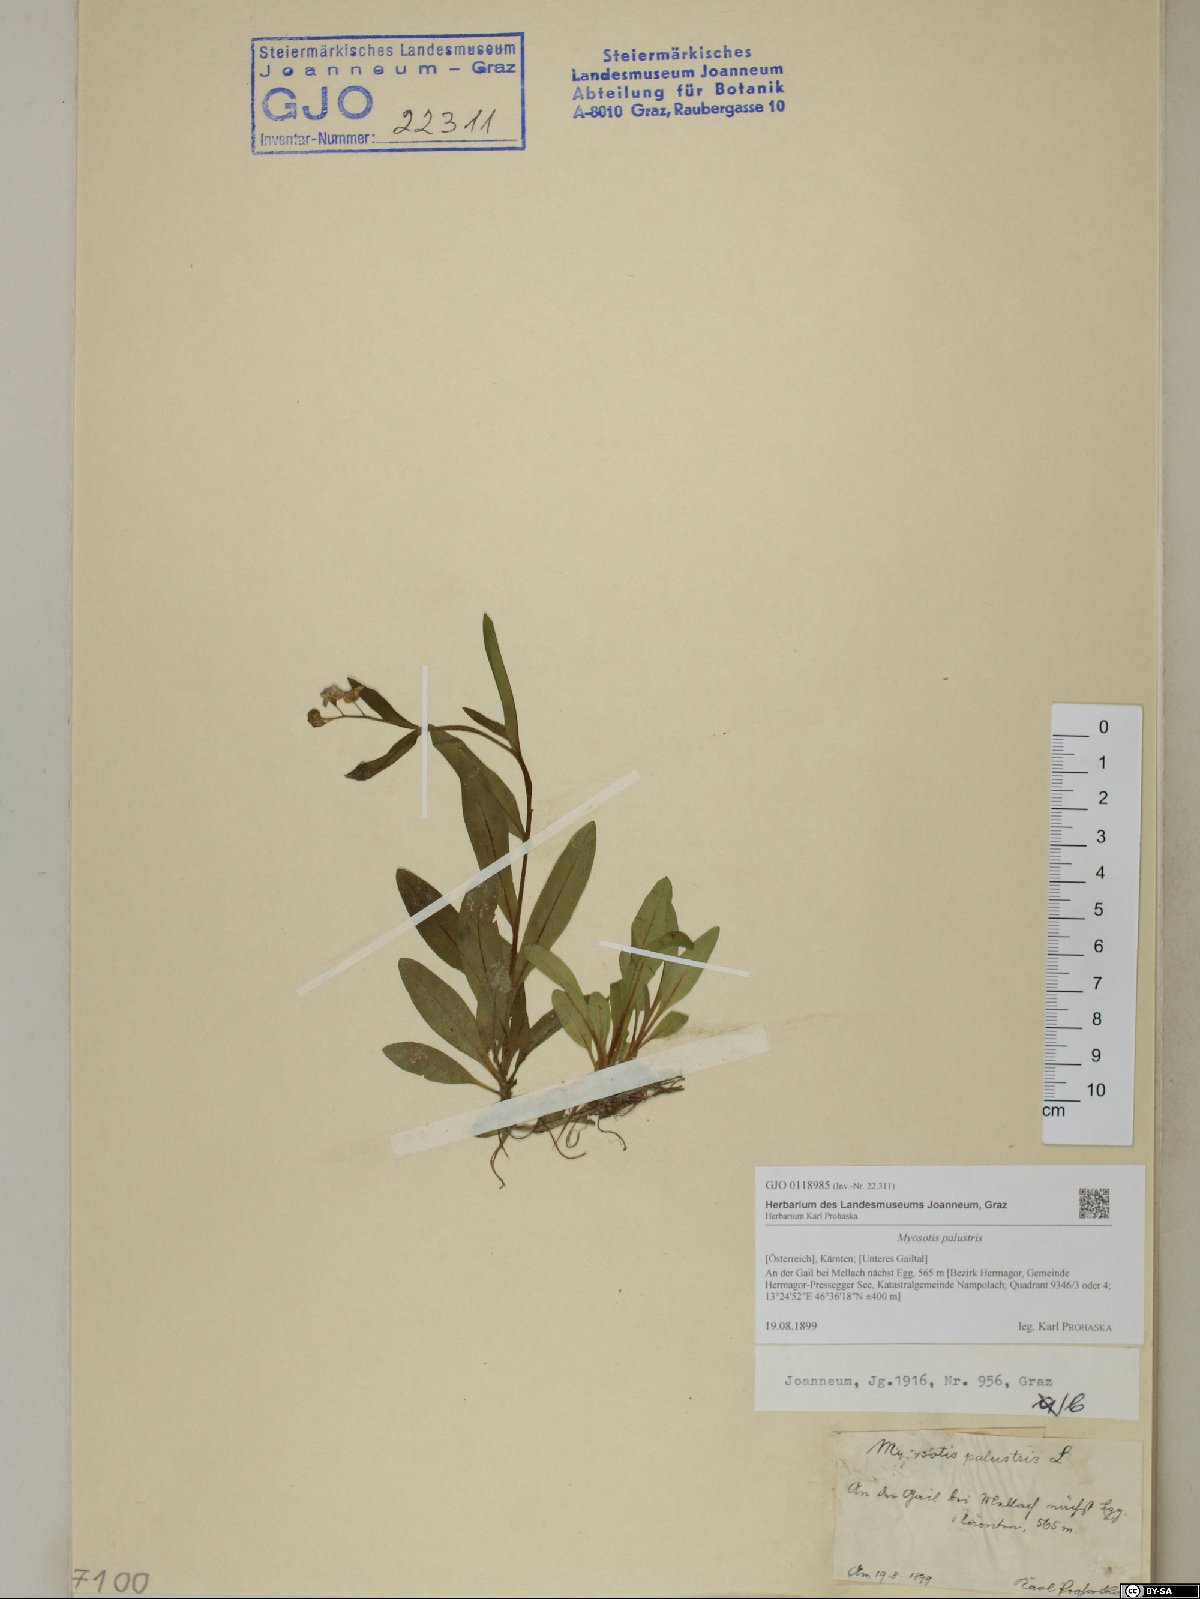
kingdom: Plantae
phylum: Tracheophyta
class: Magnoliopsida
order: Boraginales
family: Boraginaceae
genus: Myosotis
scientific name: Myosotis scorpioides
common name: Water forget-me-not
